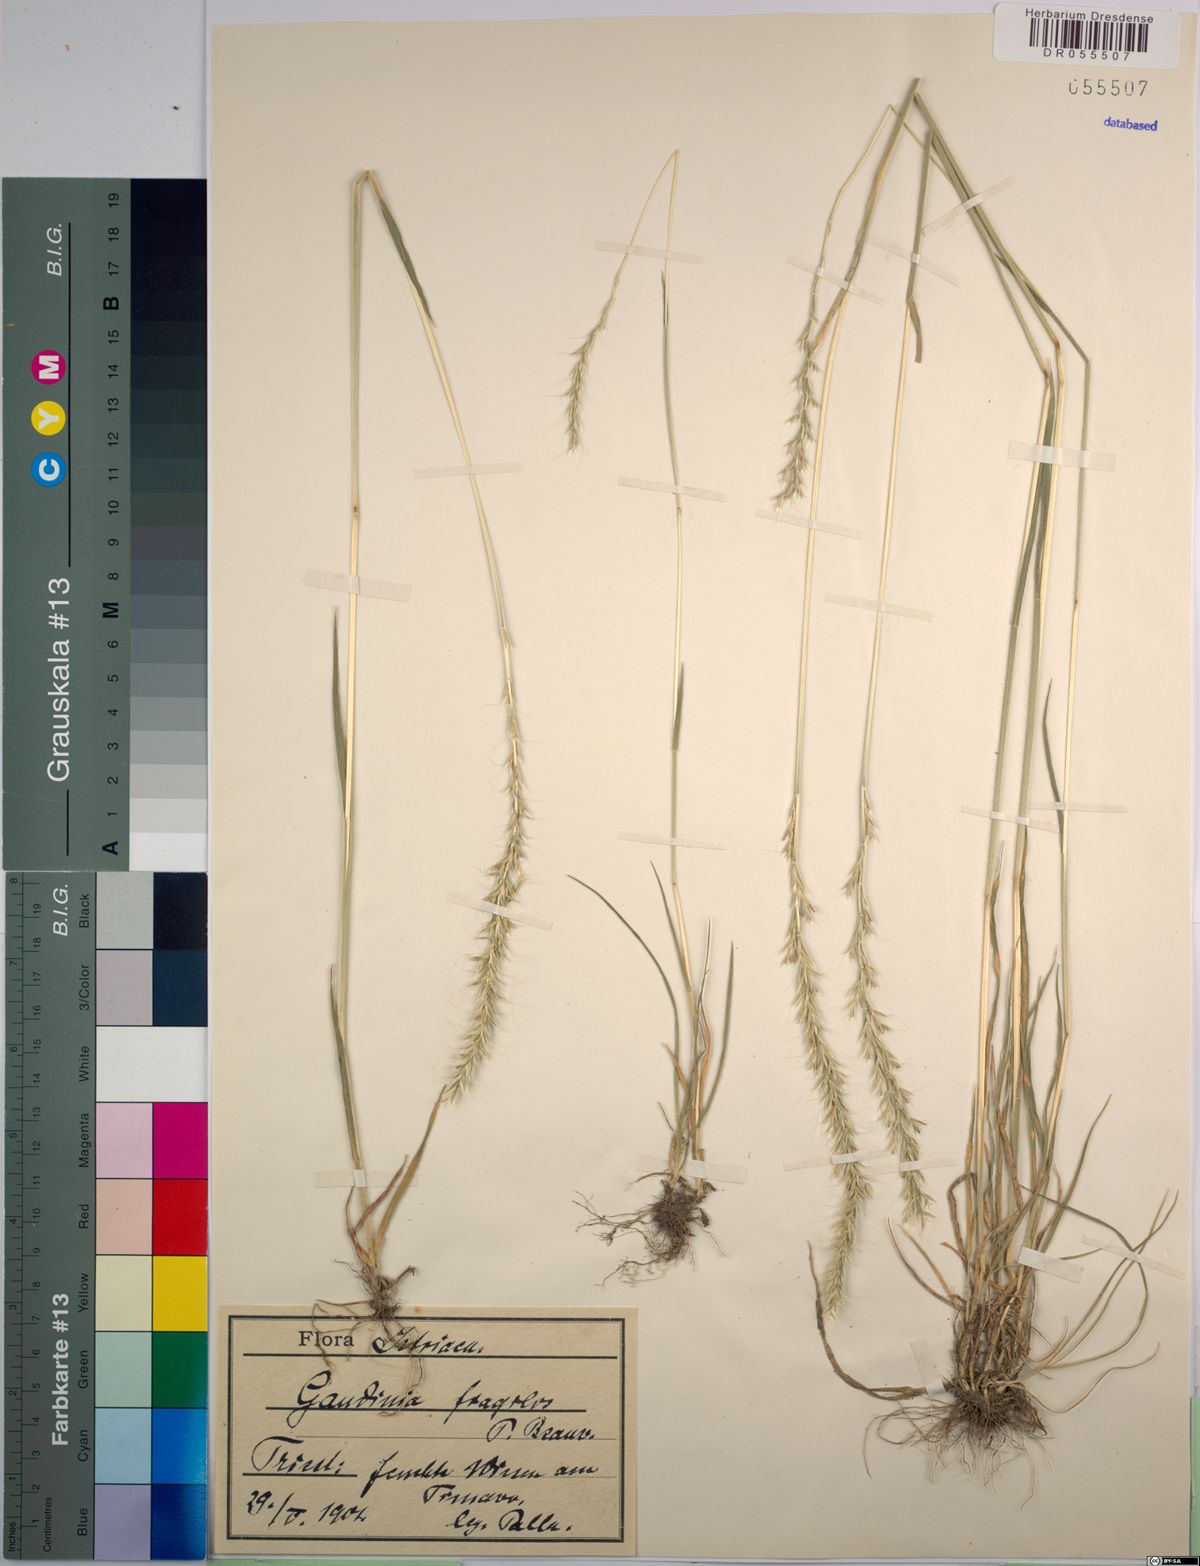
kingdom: Plantae
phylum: Tracheophyta
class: Liliopsida
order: Poales
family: Poaceae
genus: Gaudinia
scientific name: Gaudinia fragilis
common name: French oat-grass
